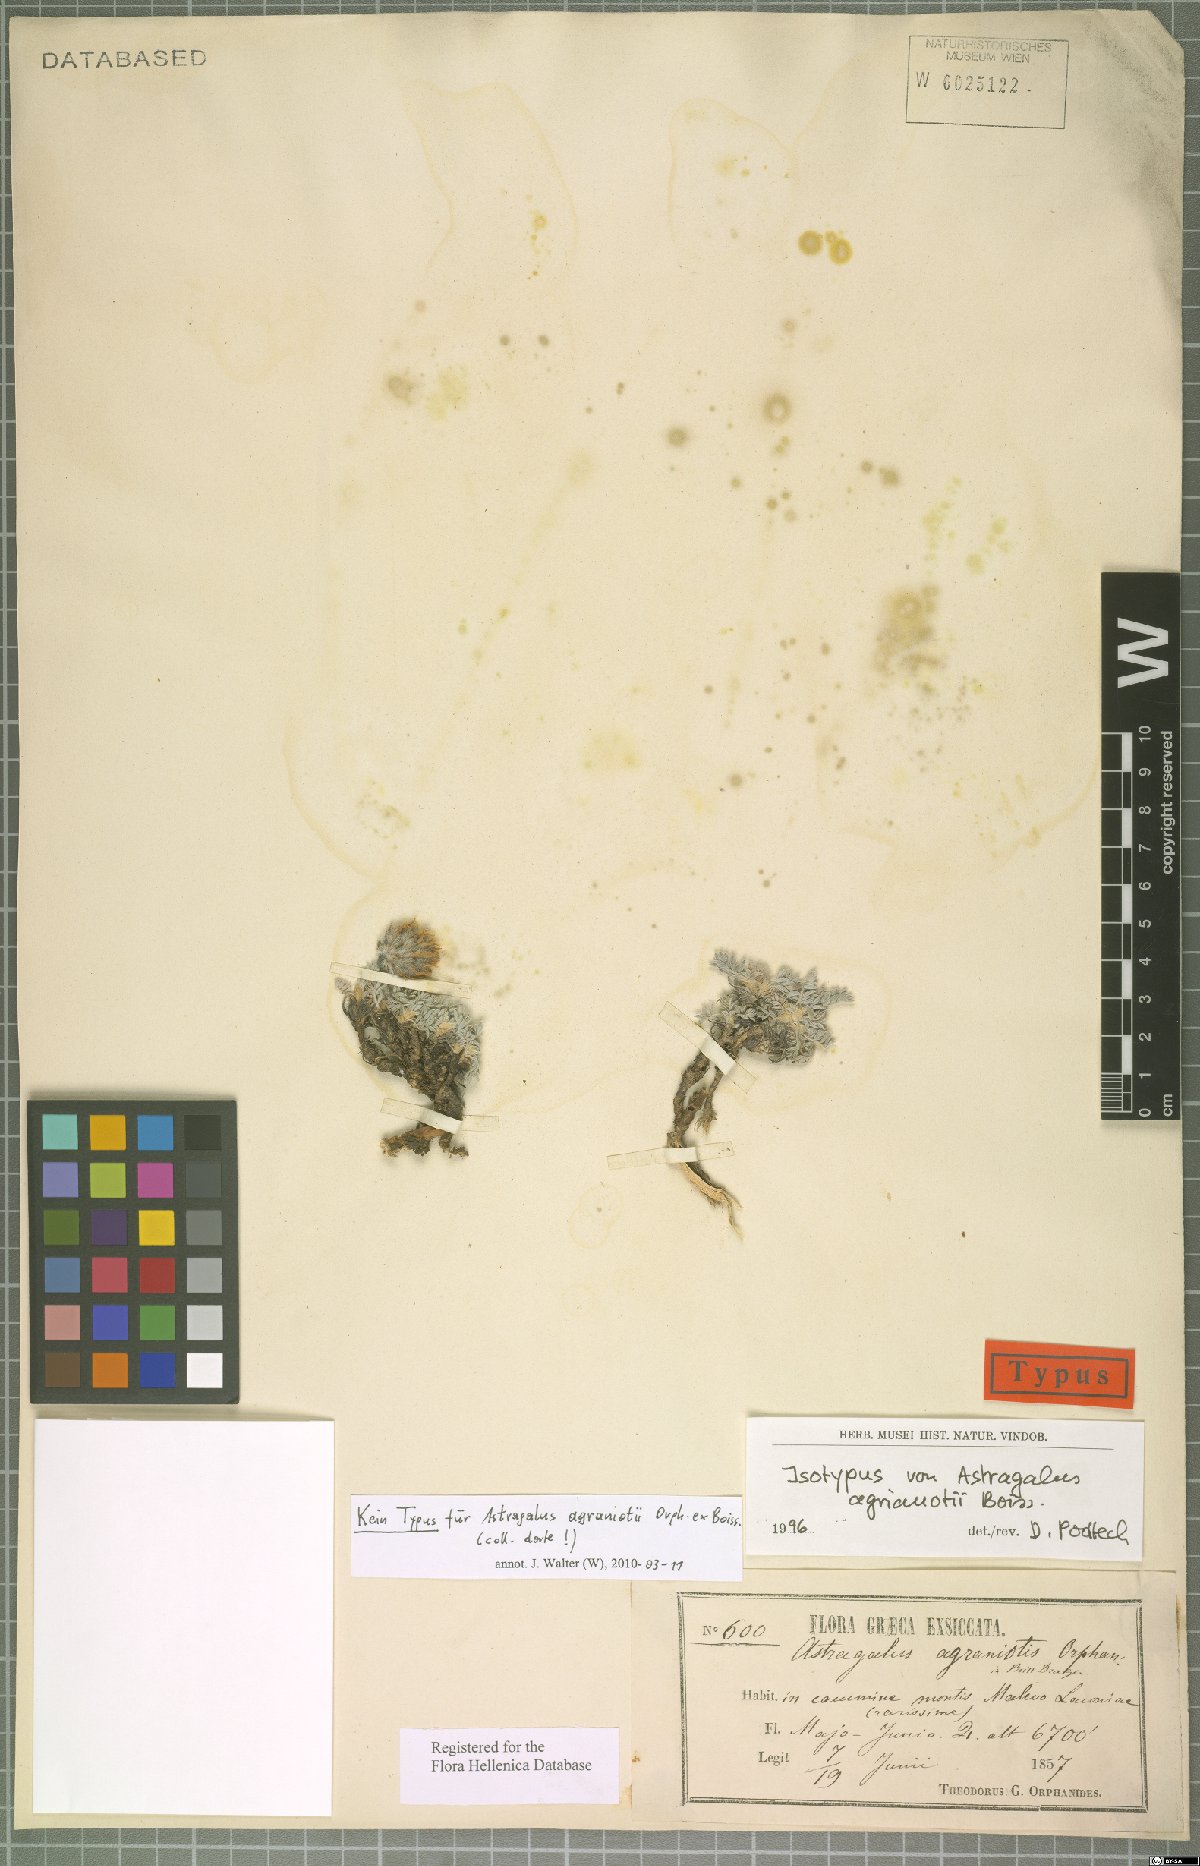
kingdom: Plantae
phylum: Tracheophyta
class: Magnoliopsida
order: Fabales
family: Fabaceae
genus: Astragalus
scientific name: Astragalus agraniotii
